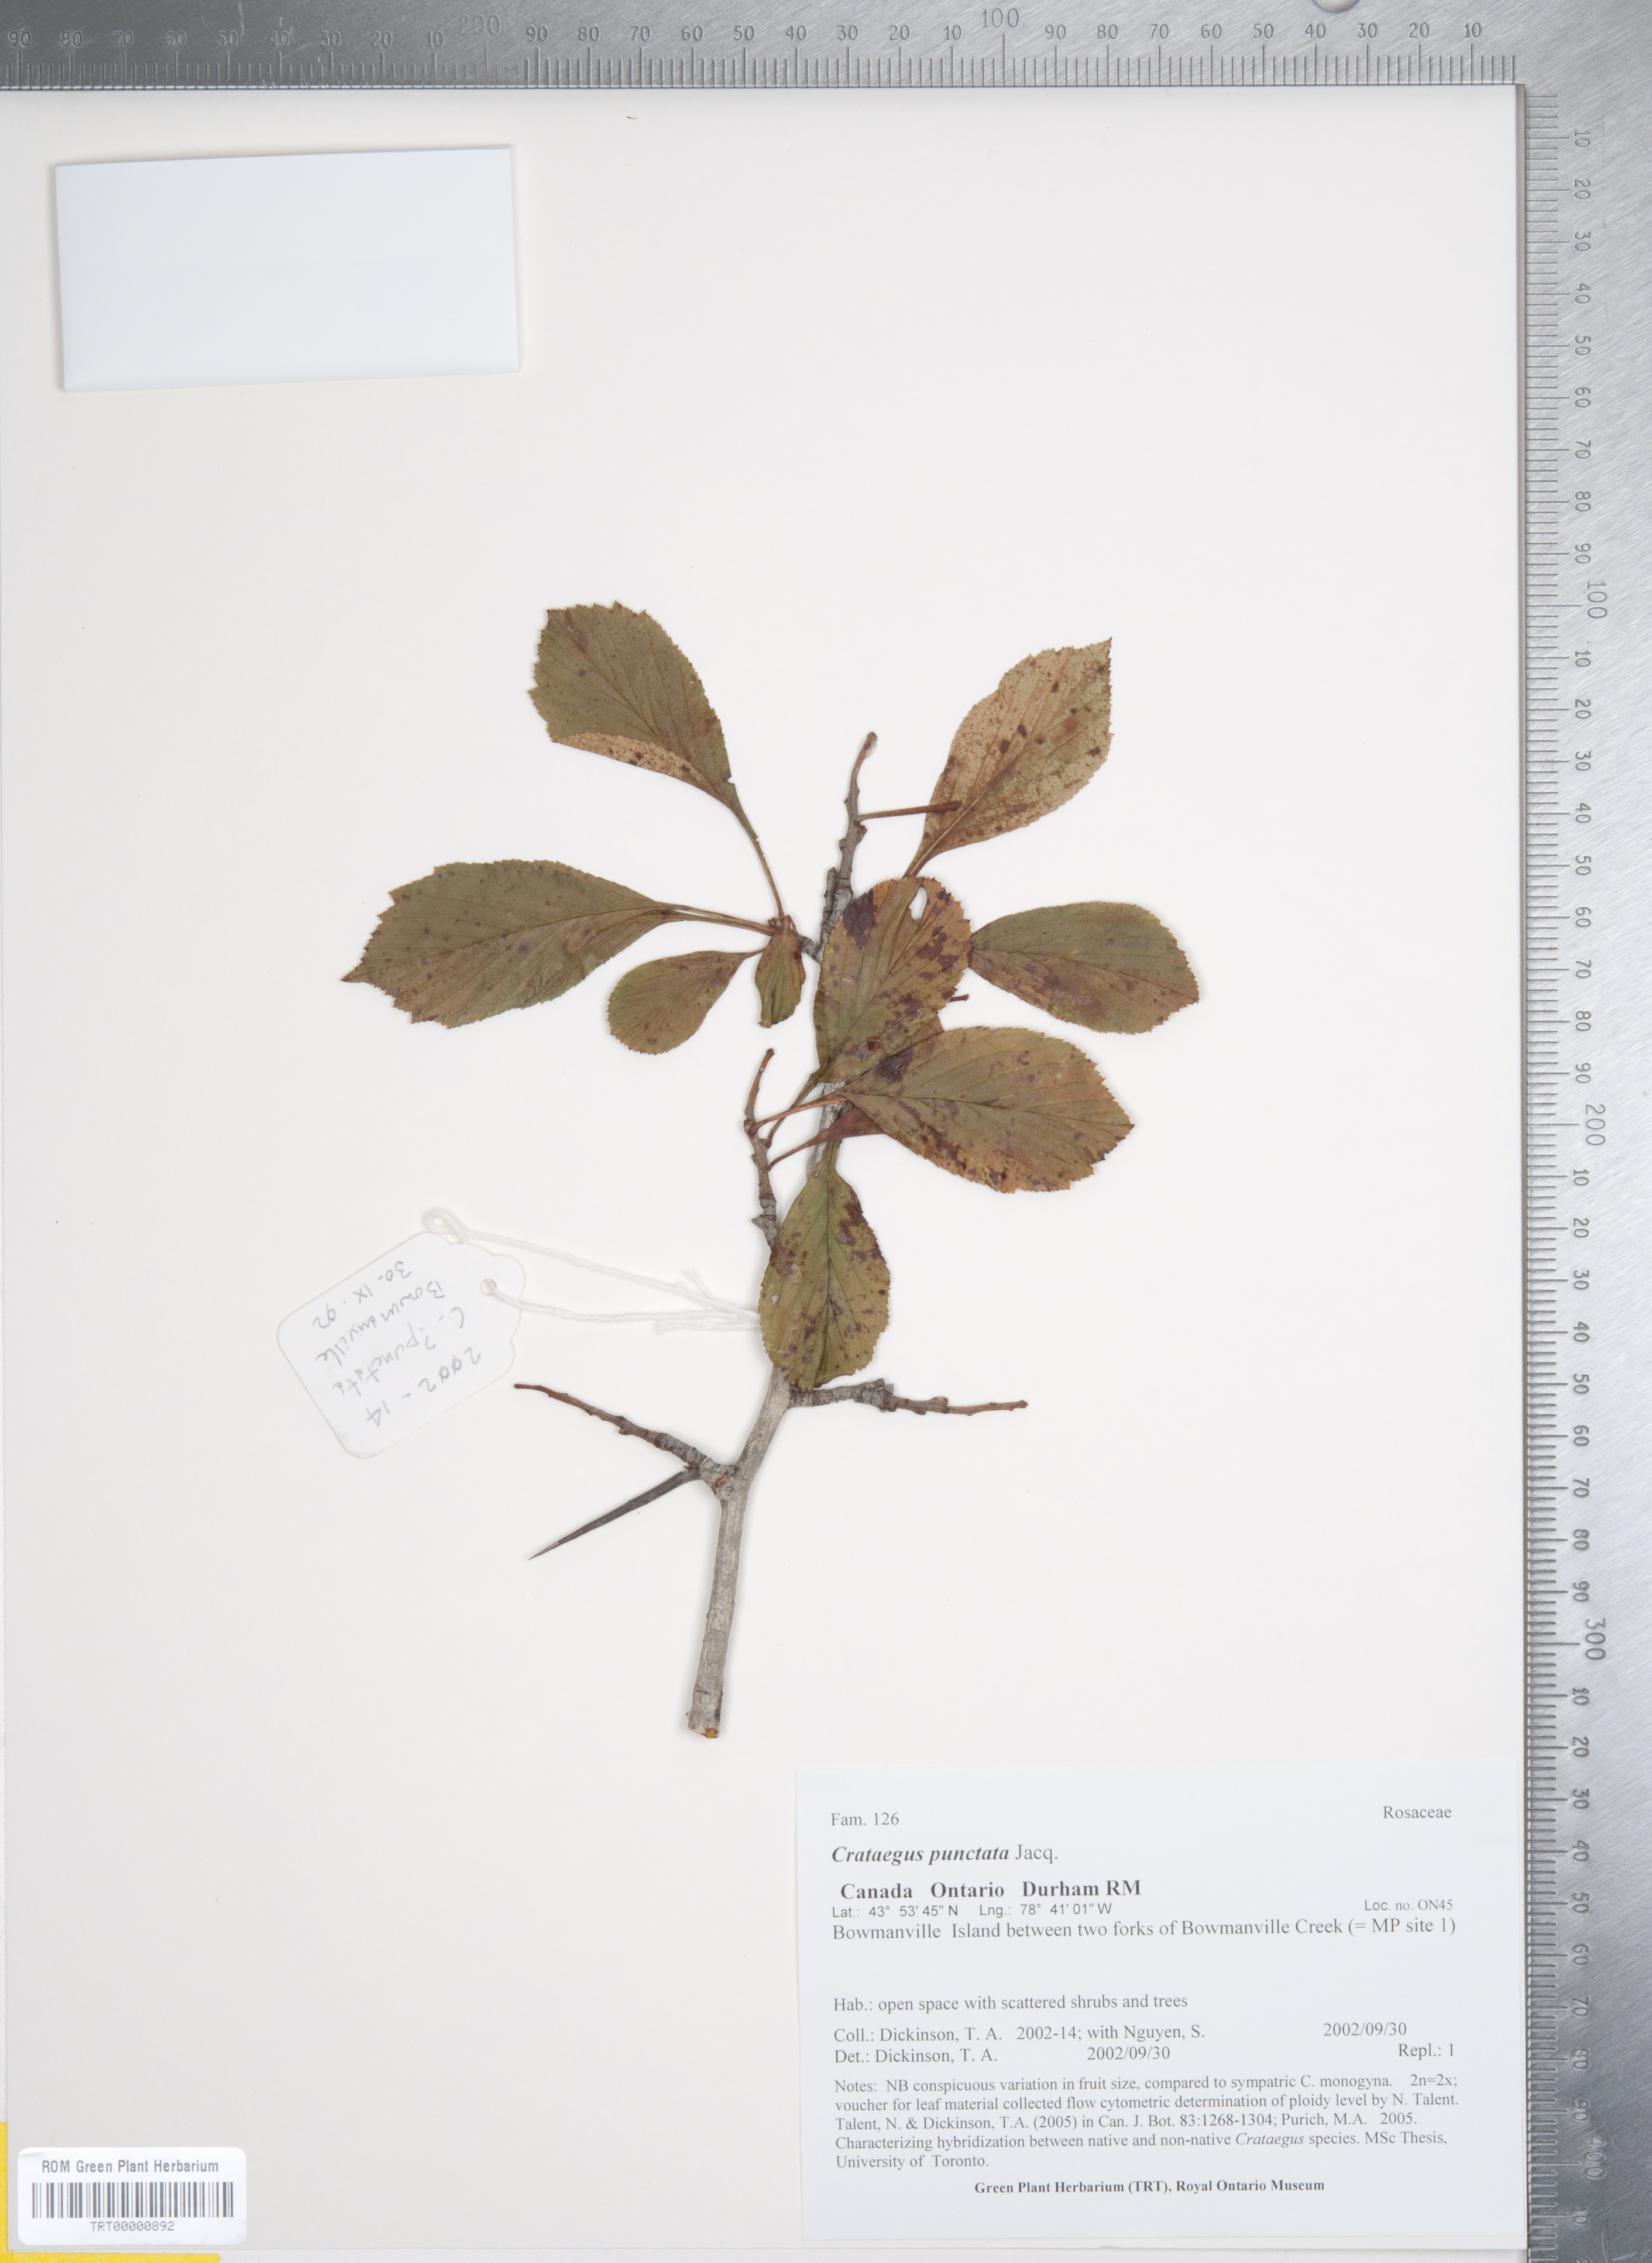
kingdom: Plantae
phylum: Tracheophyta
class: Magnoliopsida
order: Rosales
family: Rosaceae
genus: Crataegus
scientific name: Crataegus punctata
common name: Dotted hawthorn
